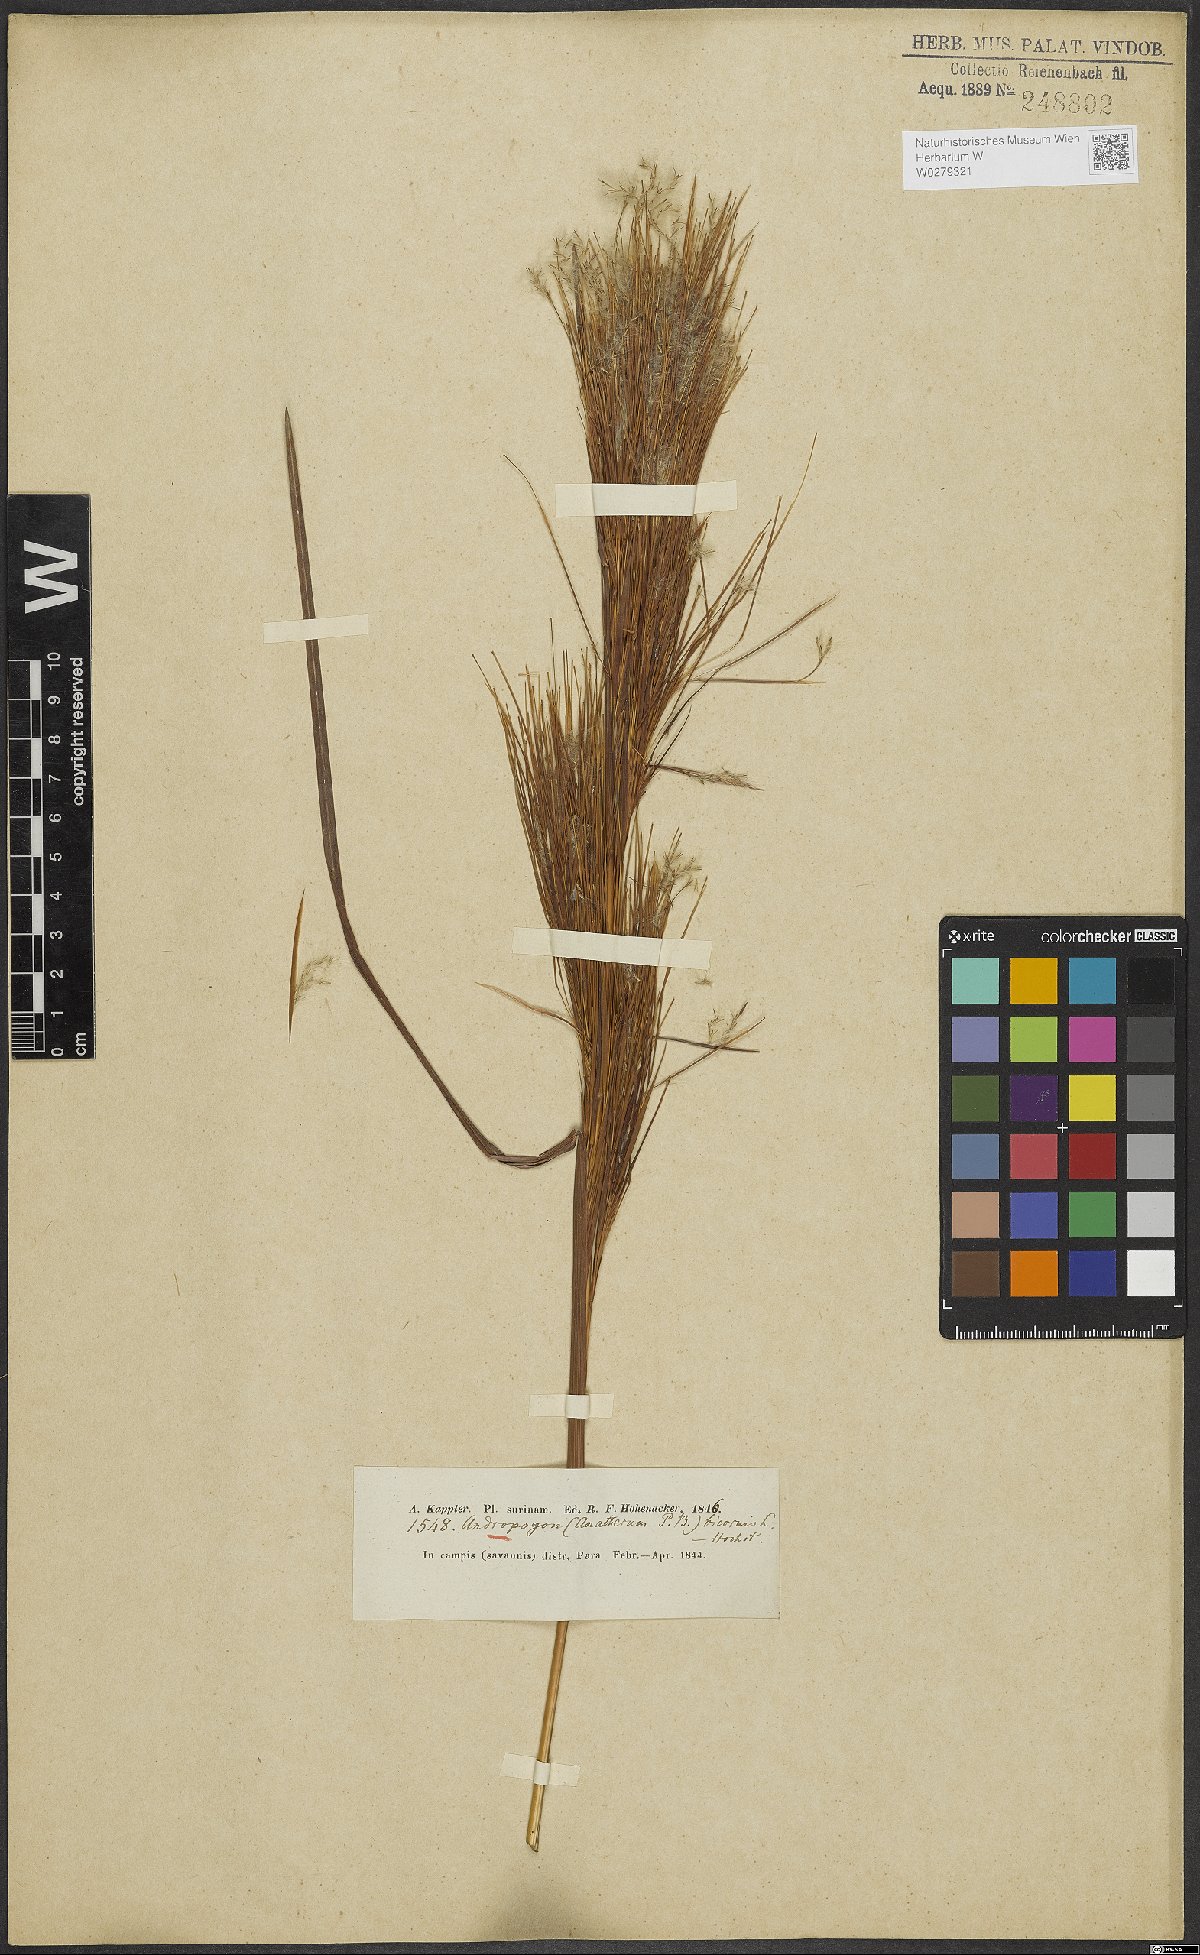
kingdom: Plantae
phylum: Tracheophyta
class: Liliopsida
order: Poales
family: Poaceae
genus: Andropogon
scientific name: Andropogon bicornis
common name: West indian foxtail grass
